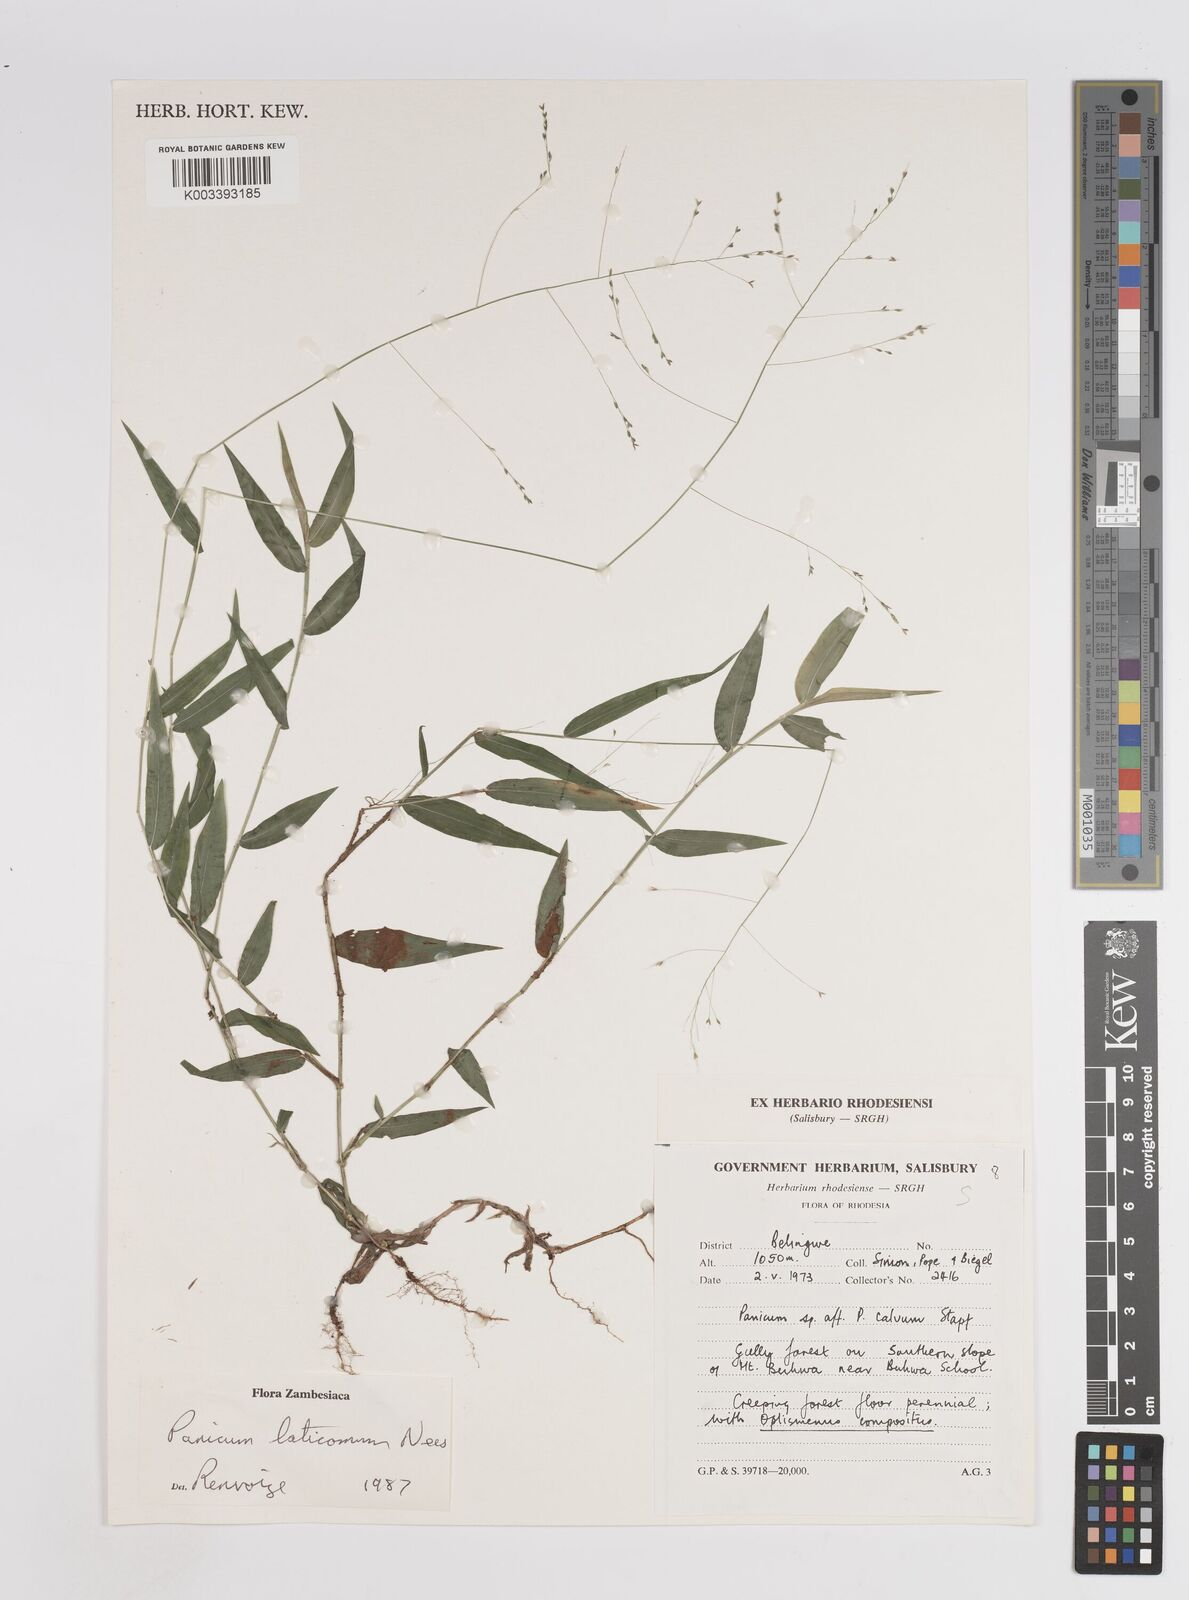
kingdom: Plantae
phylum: Tracheophyta
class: Liliopsida
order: Poales
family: Poaceae
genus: Panicum
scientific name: Panicum laticomum
